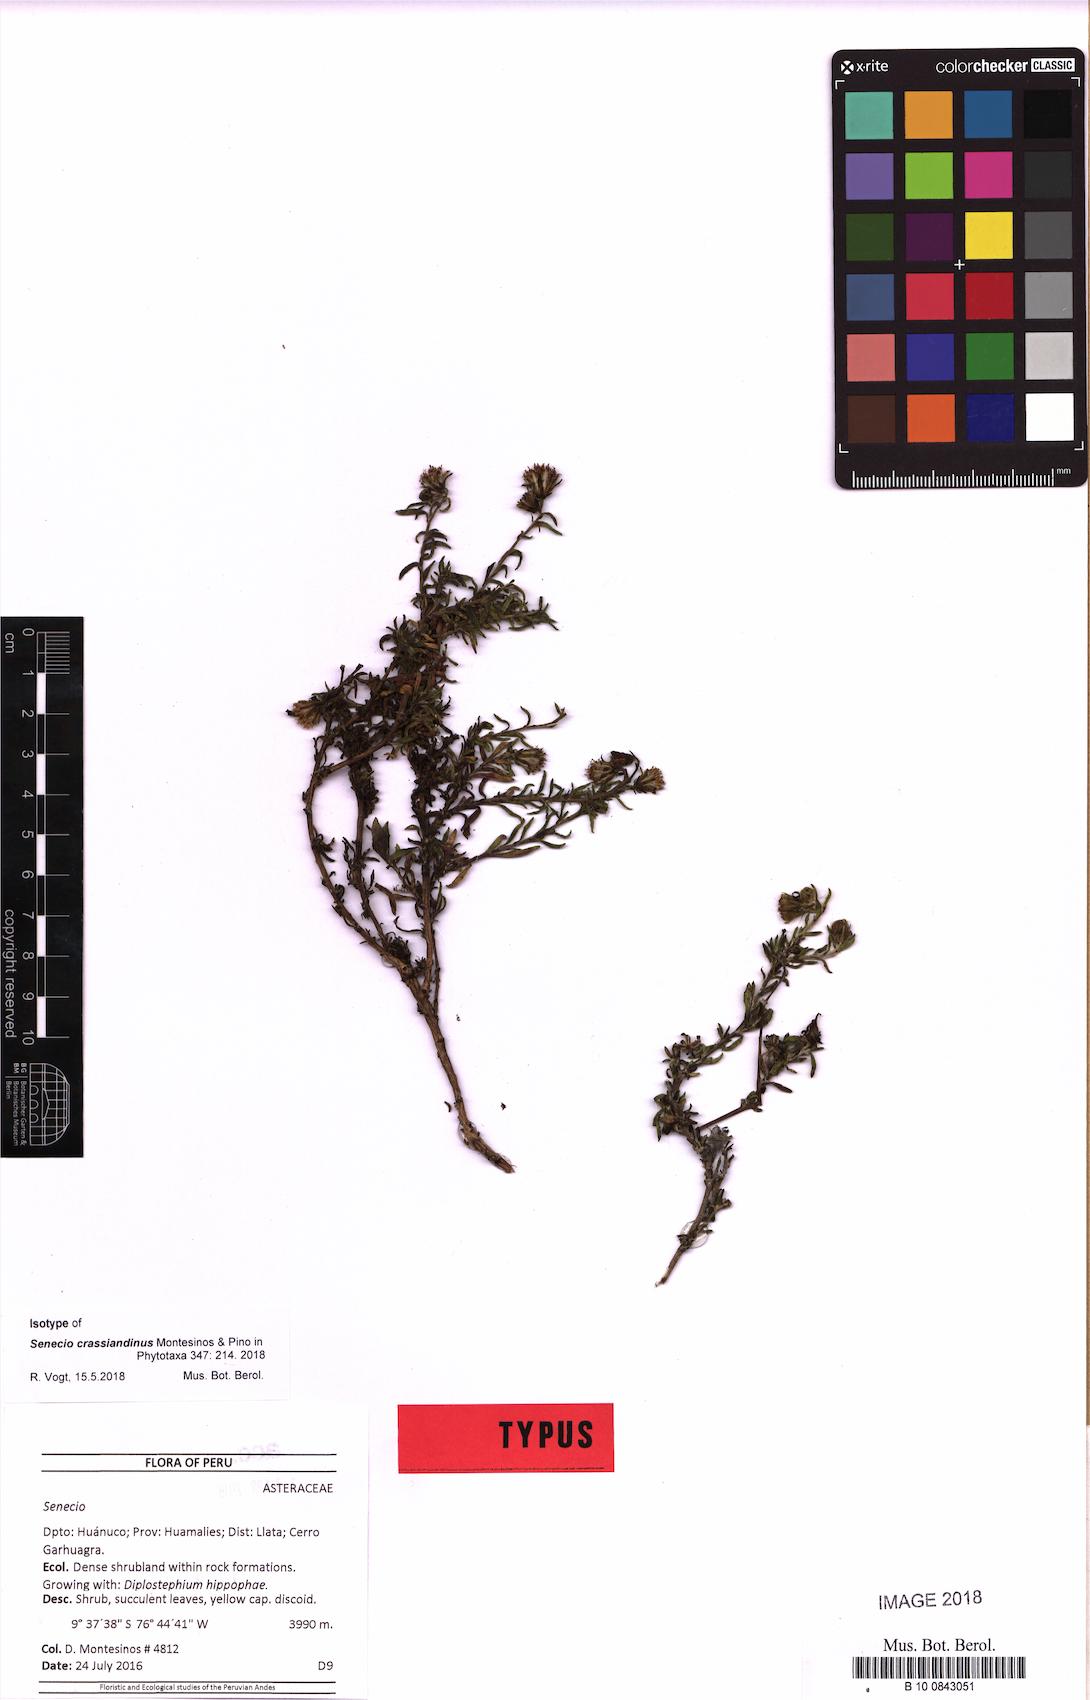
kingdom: Plantae
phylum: Tracheophyta
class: Magnoliopsida
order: Asterales
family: Asteraceae
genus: Senecio
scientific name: Senecio crassiandinus
